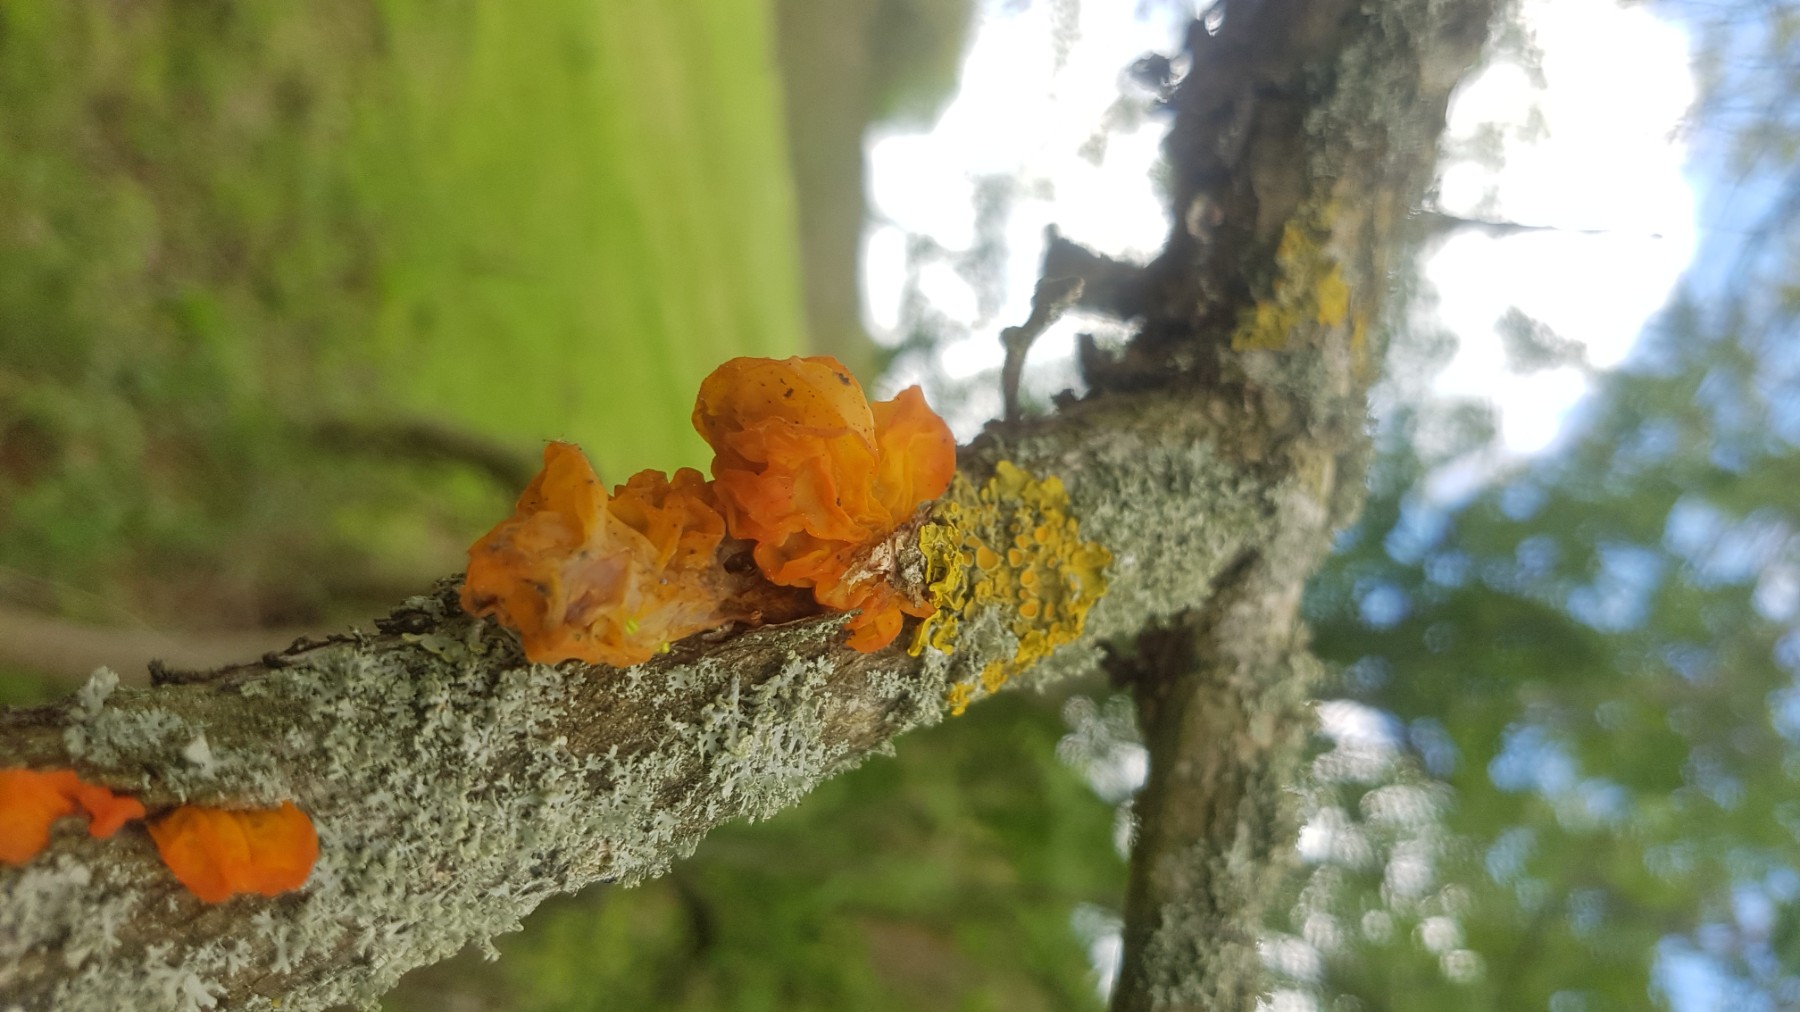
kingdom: Fungi
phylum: Basidiomycota
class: Tremellomycetes
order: Tremellales
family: Tremellaceae
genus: Tremella
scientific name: Tremella mesenterica
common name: gul bævresvamp
